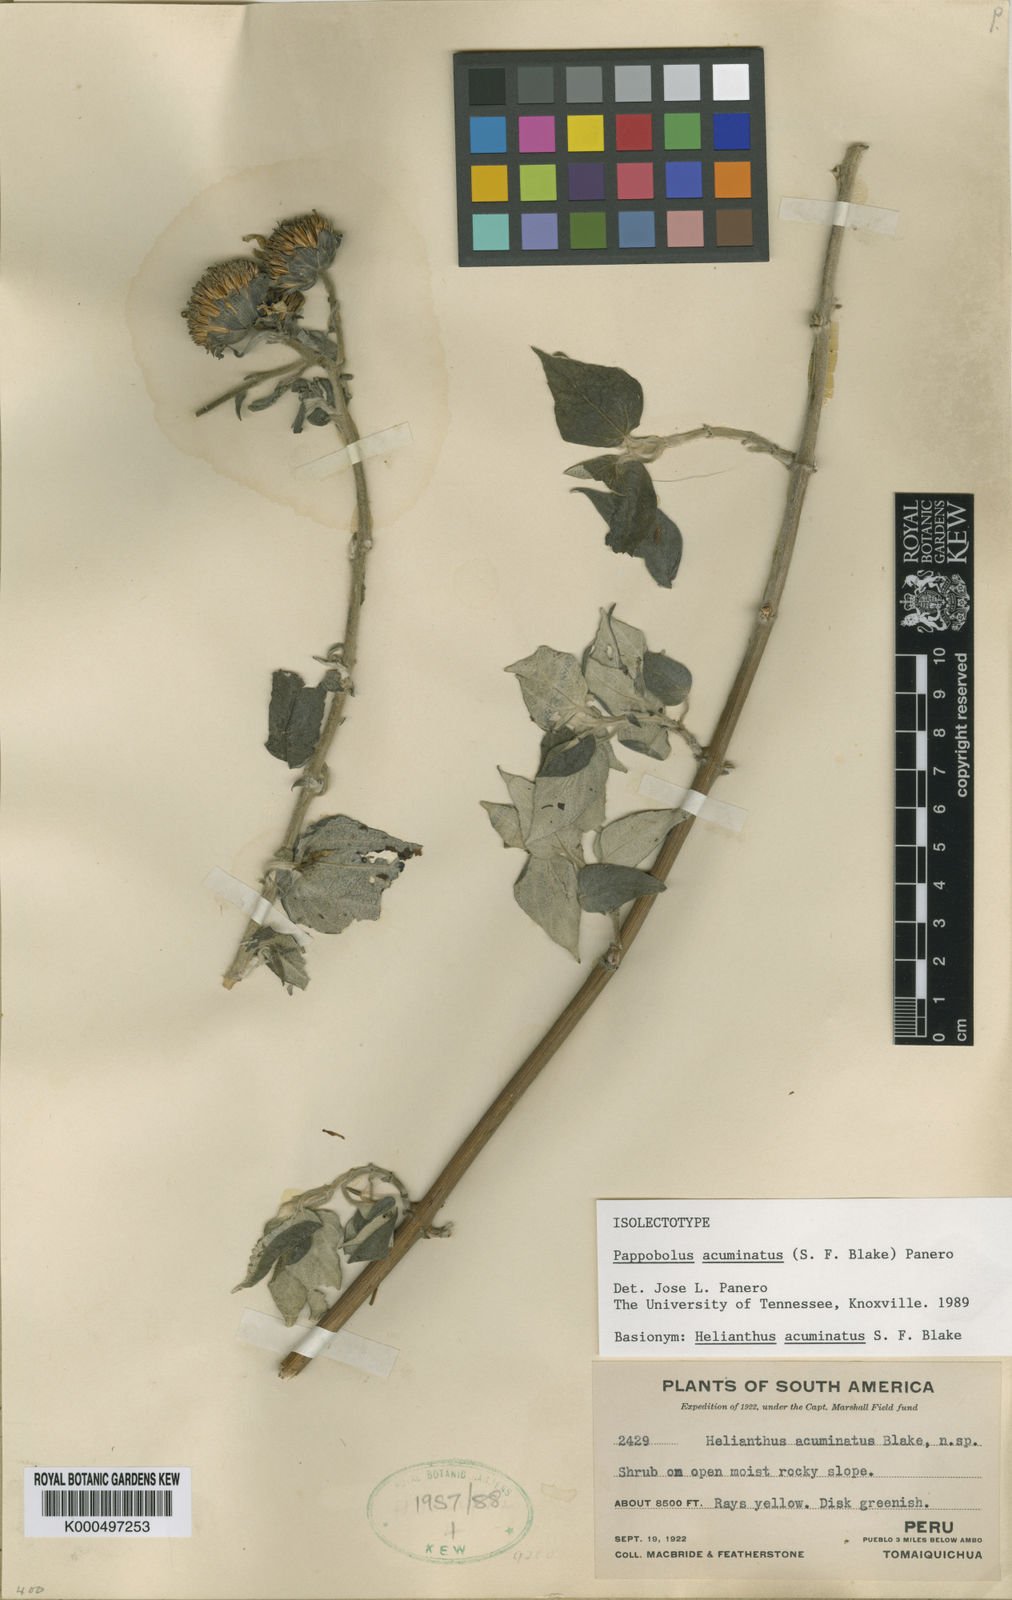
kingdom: Plantae
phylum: Tracheophyta
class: Magnoliopsida
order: Asterales
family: Asteraceae
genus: Pappobolus
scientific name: Pappobolus acuminatus
